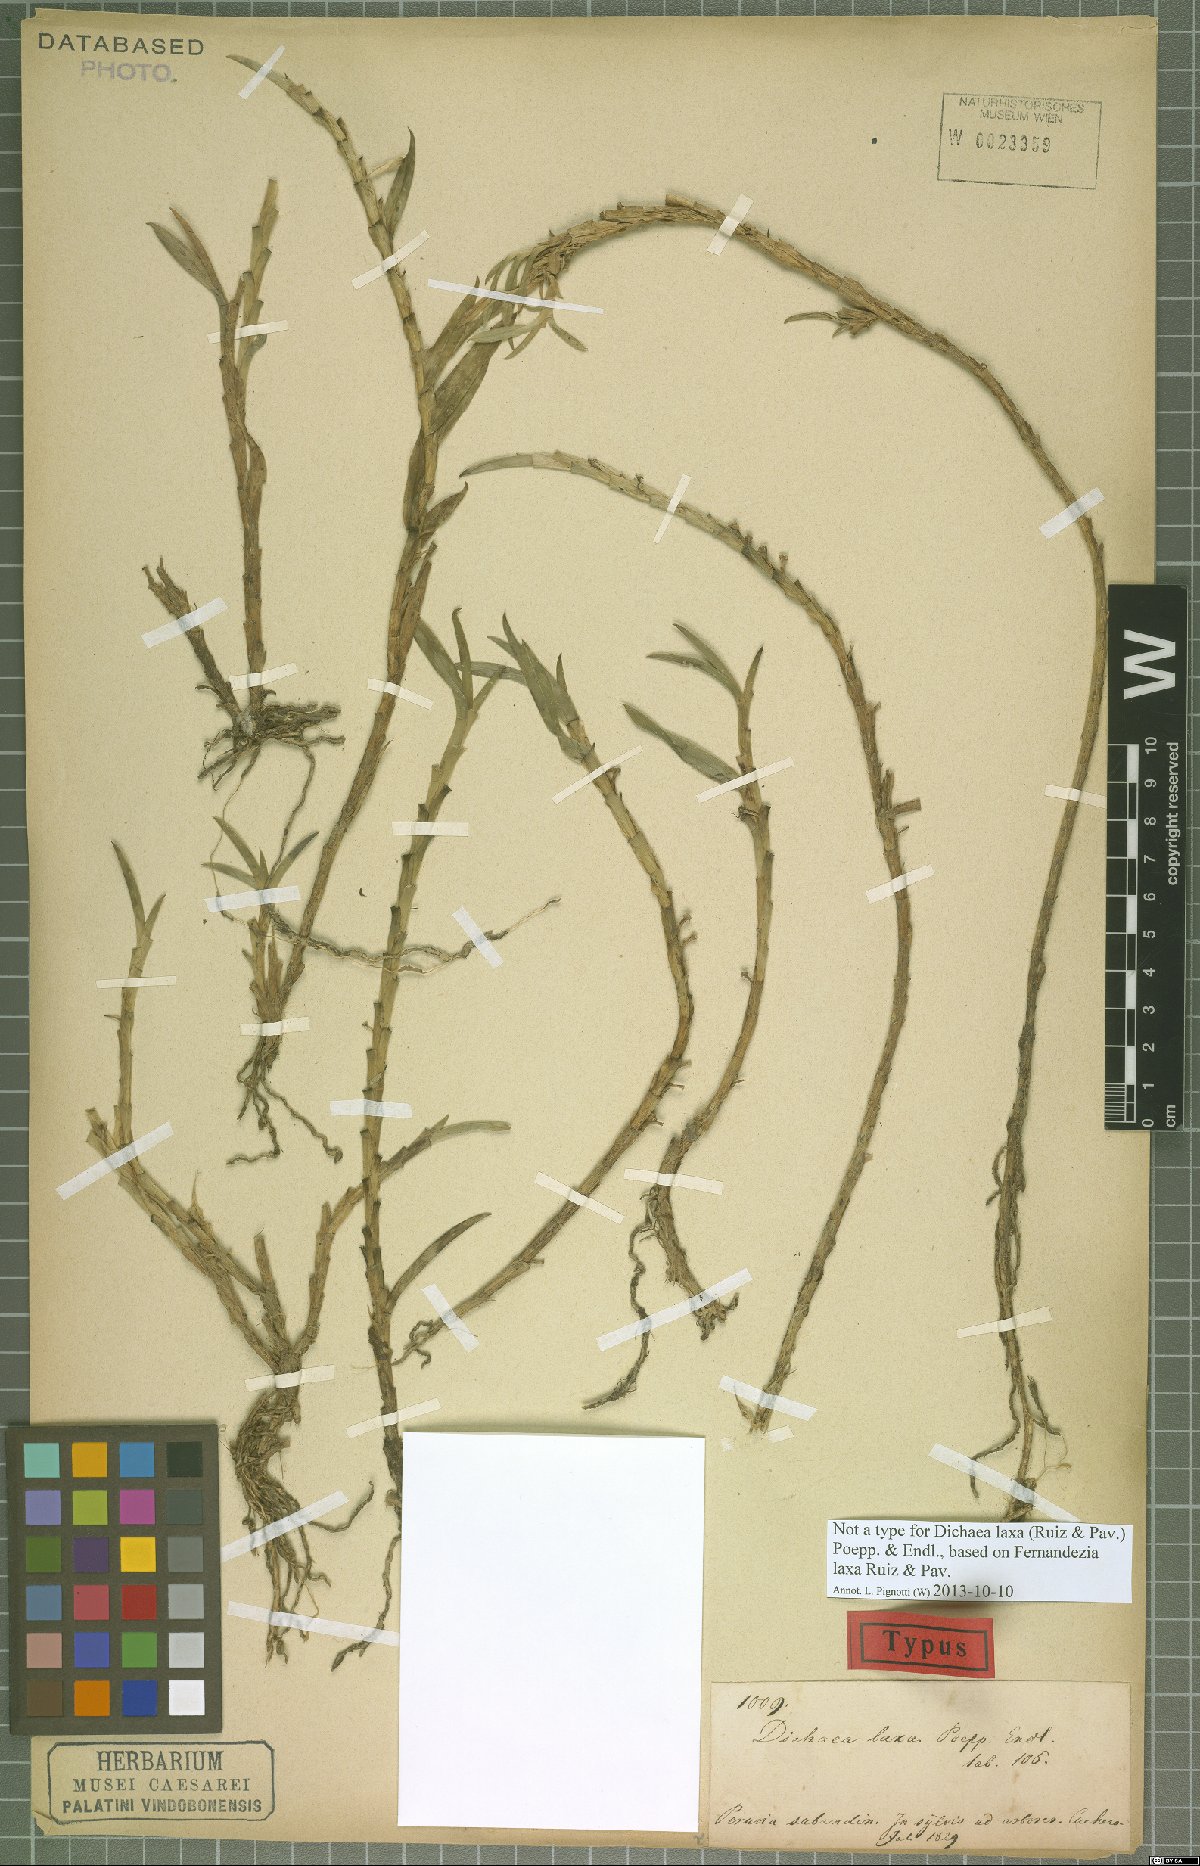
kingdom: Plantae
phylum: Tracheophyta
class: Liliopsida
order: Asparagales
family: Orchidaceae
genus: Dichaea
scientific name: Dichaea laxa
